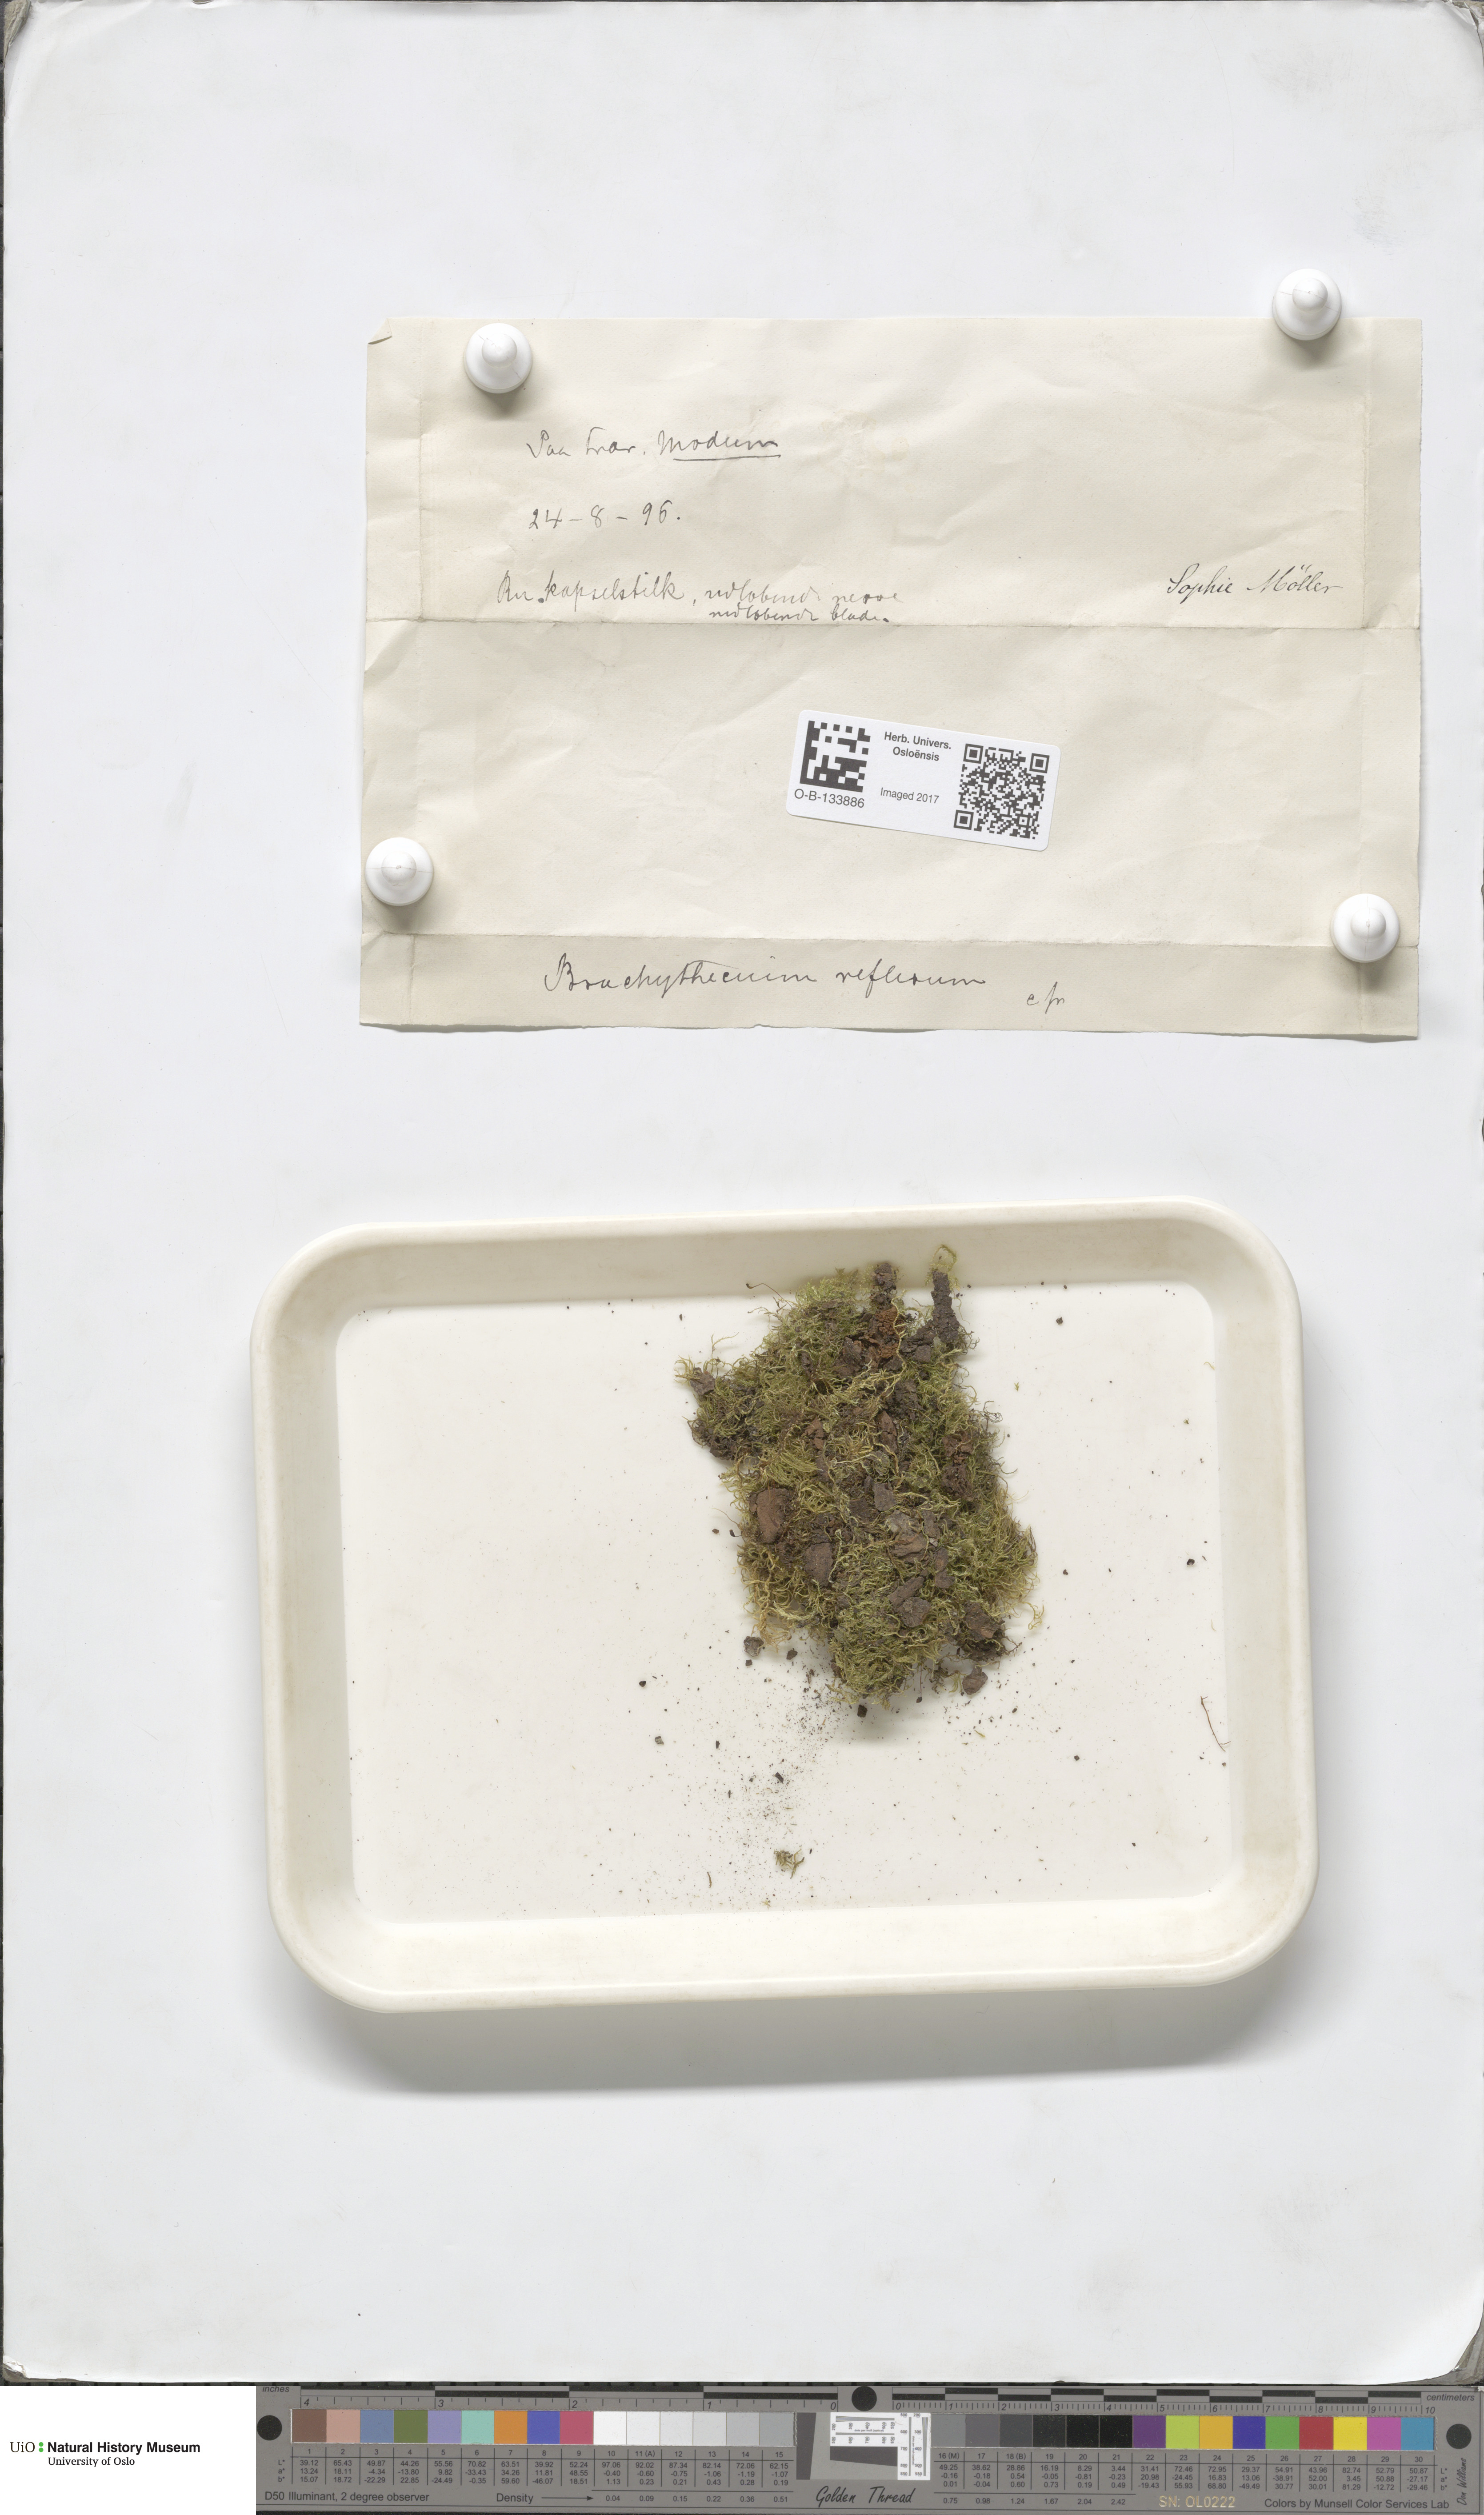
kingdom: Plantae
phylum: Bryophyta
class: Bryopsida
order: Hypnales
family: Brachytheciaceae
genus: Sciuro-hypnum
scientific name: Sciuro-hypnum reflexum
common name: Reflexed feather-moss
